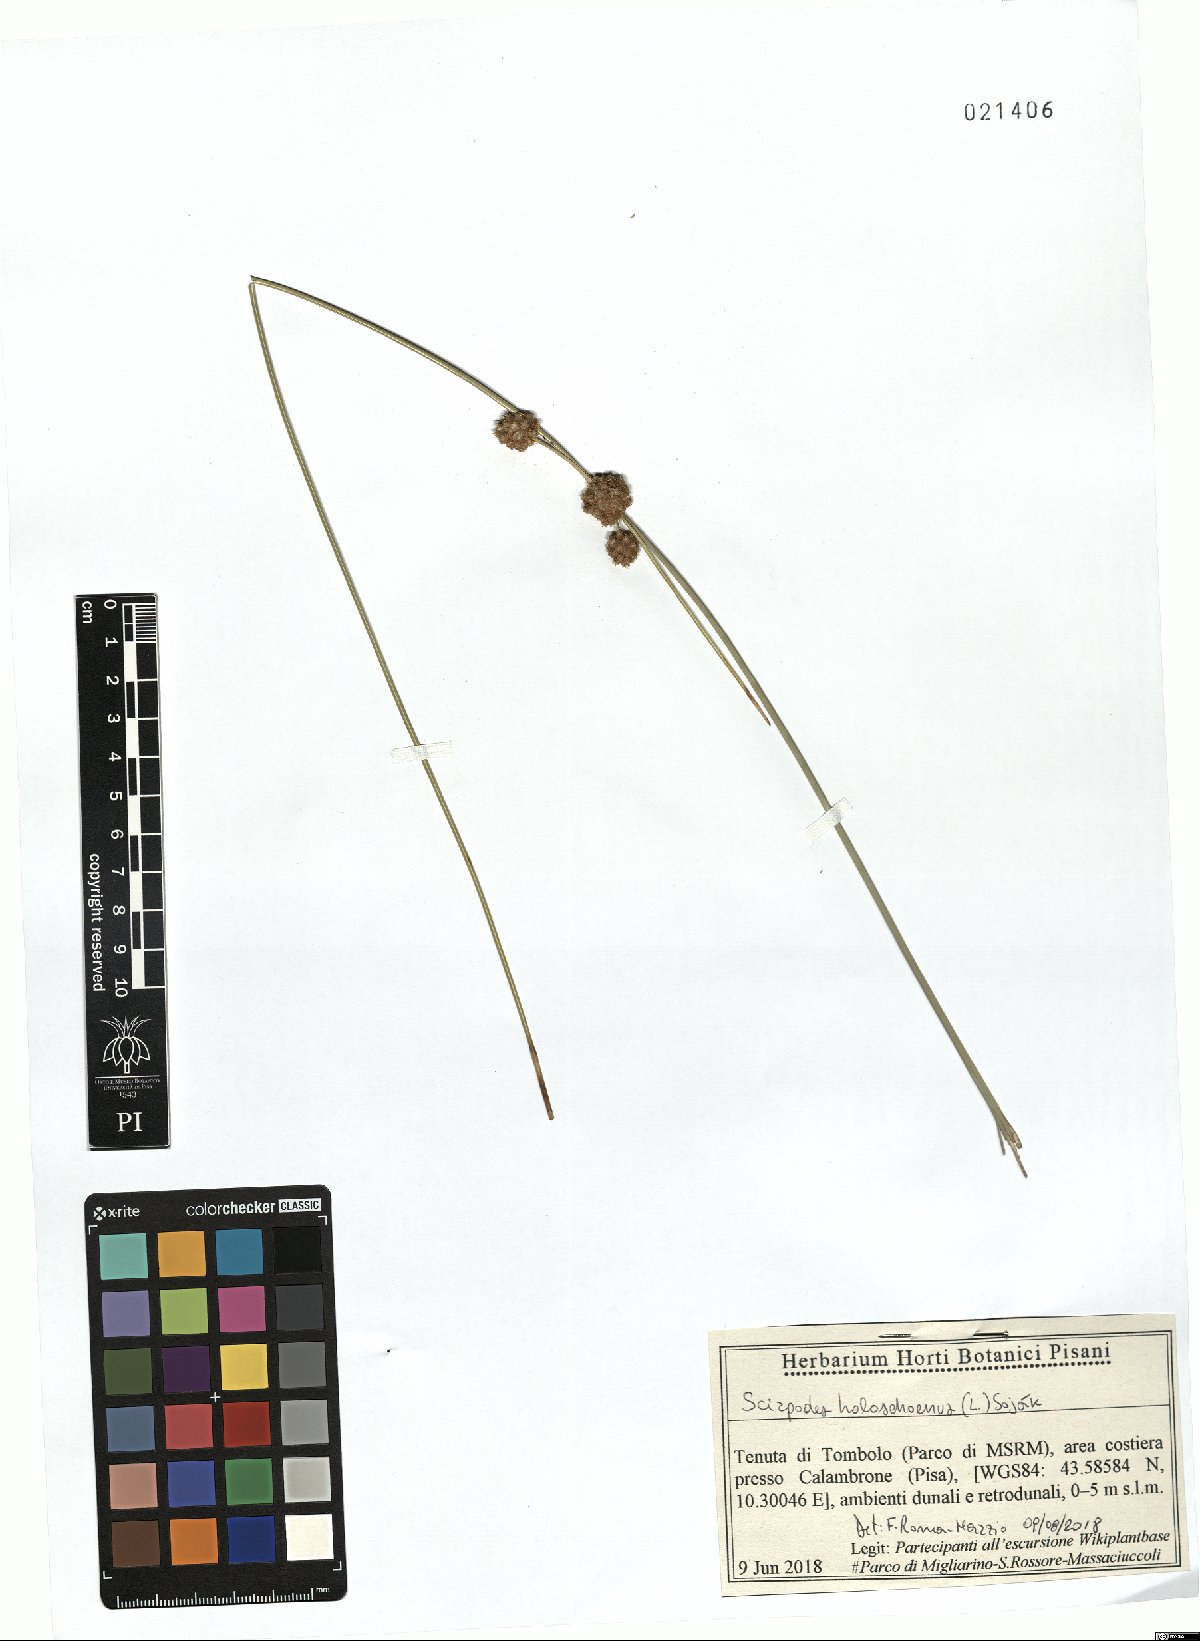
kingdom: Plantae
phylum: Tracheophyta
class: Liliopsida
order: Poales
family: Cyperaceae
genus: Scirpoides
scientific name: Scirpoides holoschoenus
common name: Round-headed club-rush
